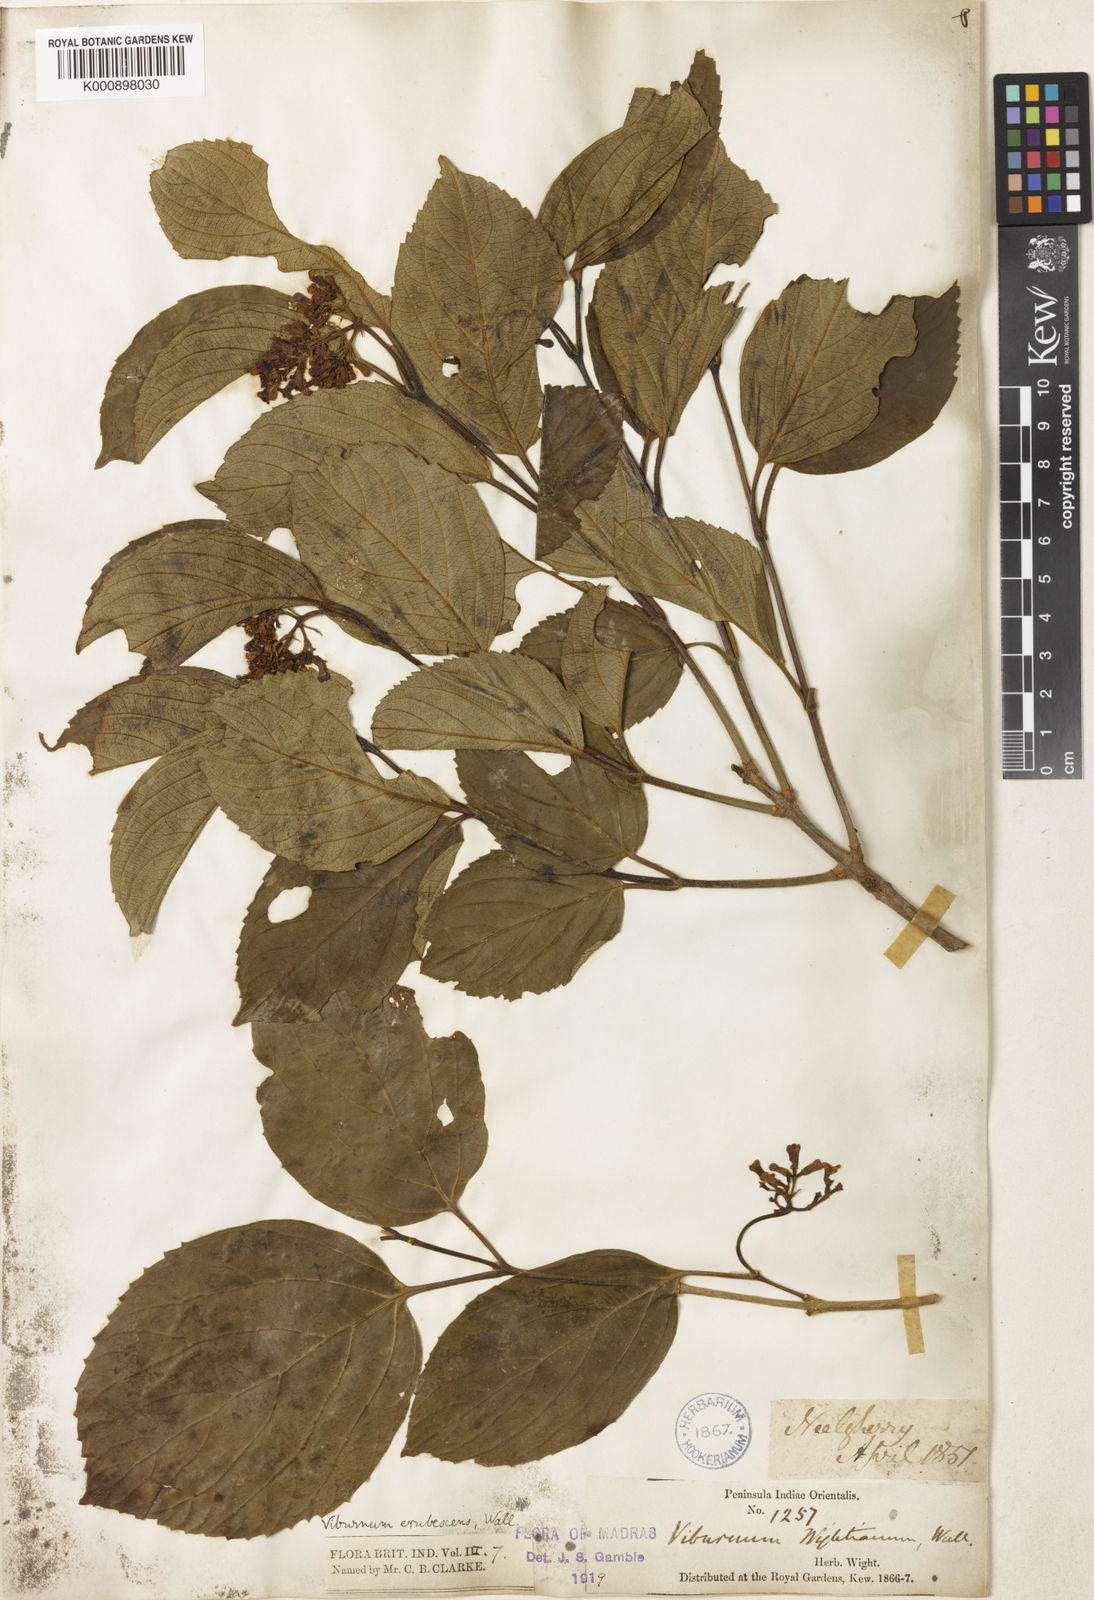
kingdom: Plantae
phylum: Tracheophyta
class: Magnoliopsida
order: Dipsacales
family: Viburnaceae
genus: Viburnum
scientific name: Viburnum
